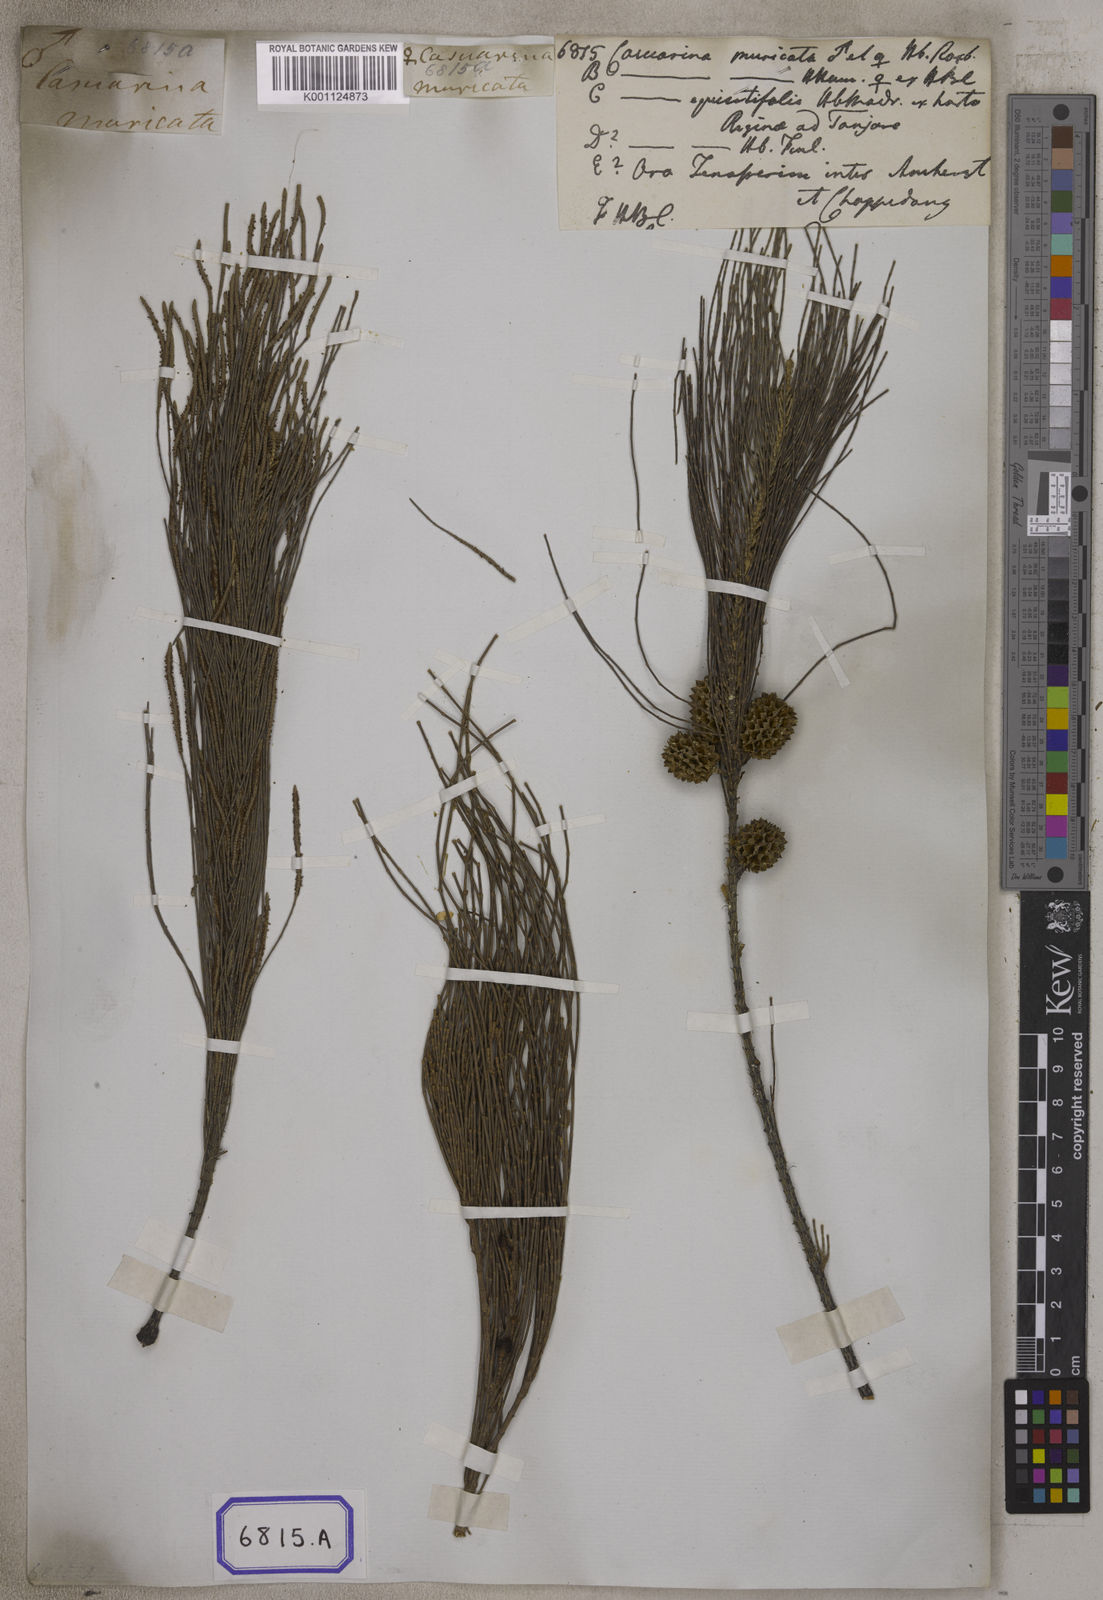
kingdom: Plantae
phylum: Tracheophyta
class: Magnoliopsida
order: Fagales
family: Casuarinaceae
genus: Casuarina
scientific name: Casuarina
